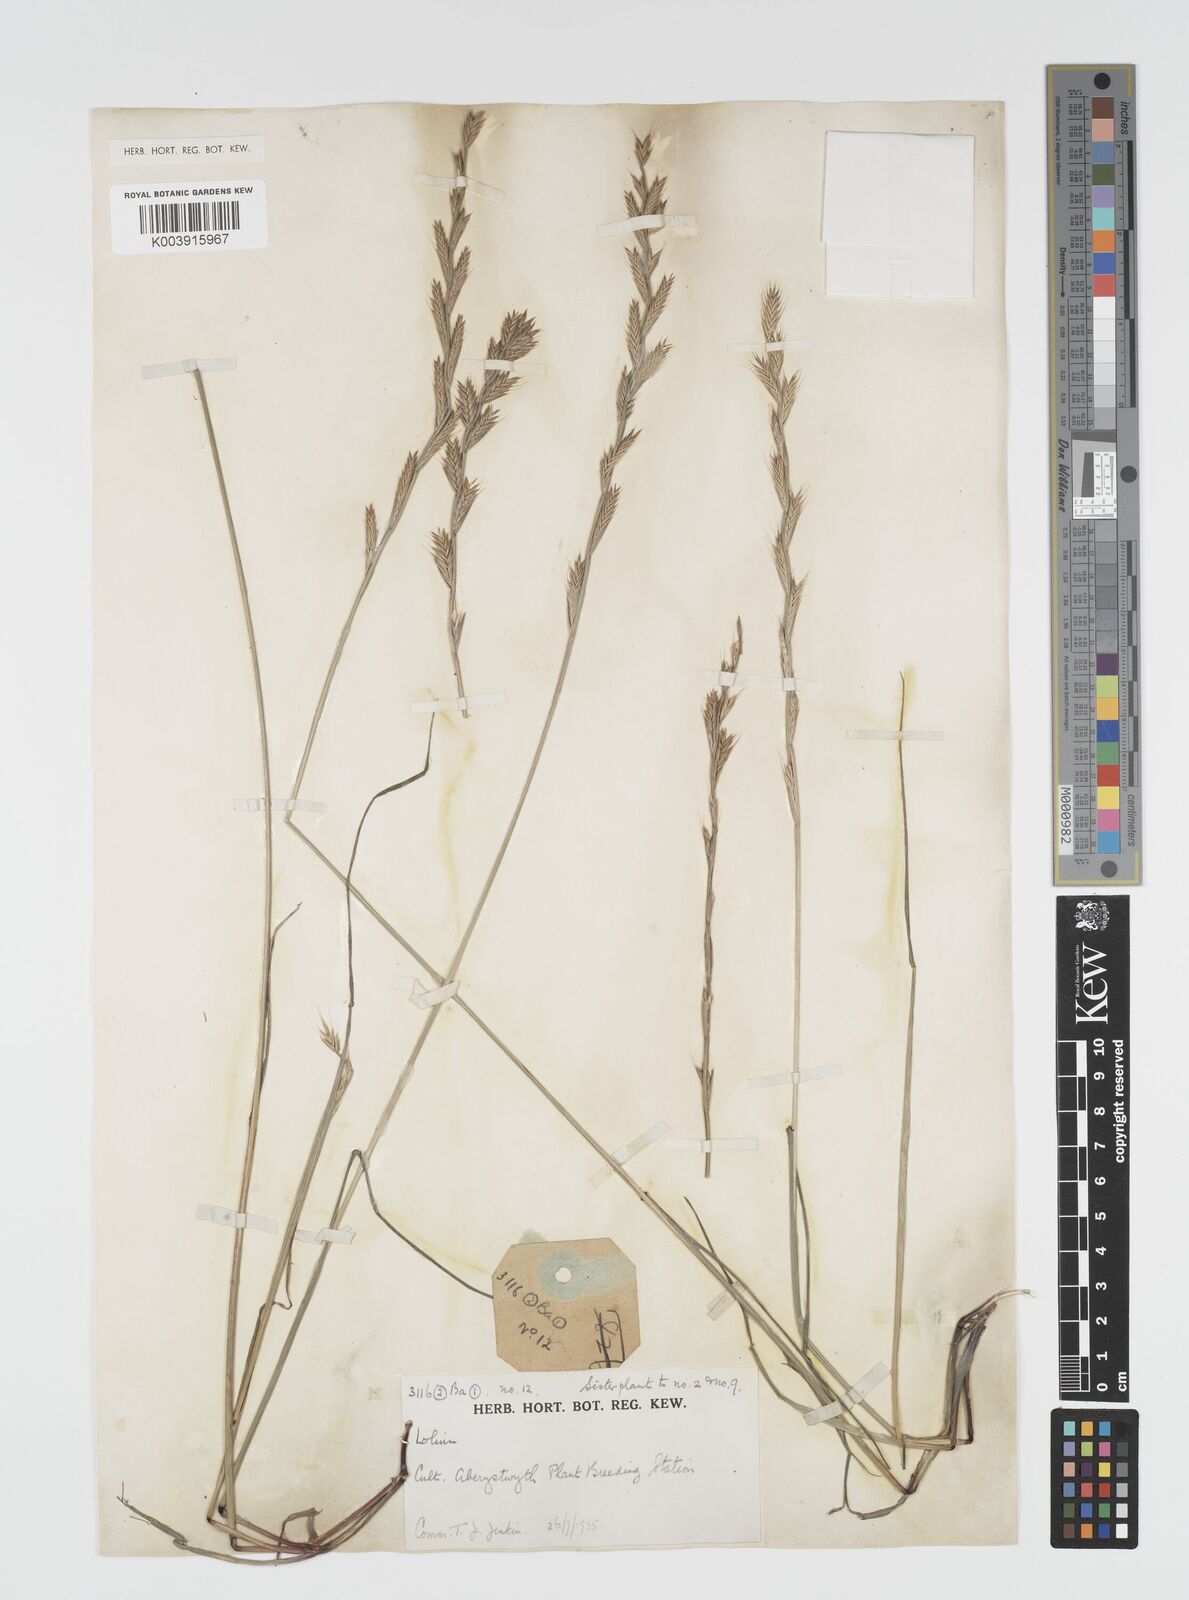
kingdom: Plantae
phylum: Tracheophyta
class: Liliopsida
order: Poales
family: Poaceae
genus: Lolium
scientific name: Lolium multiflorum
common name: Annual ryegrass
